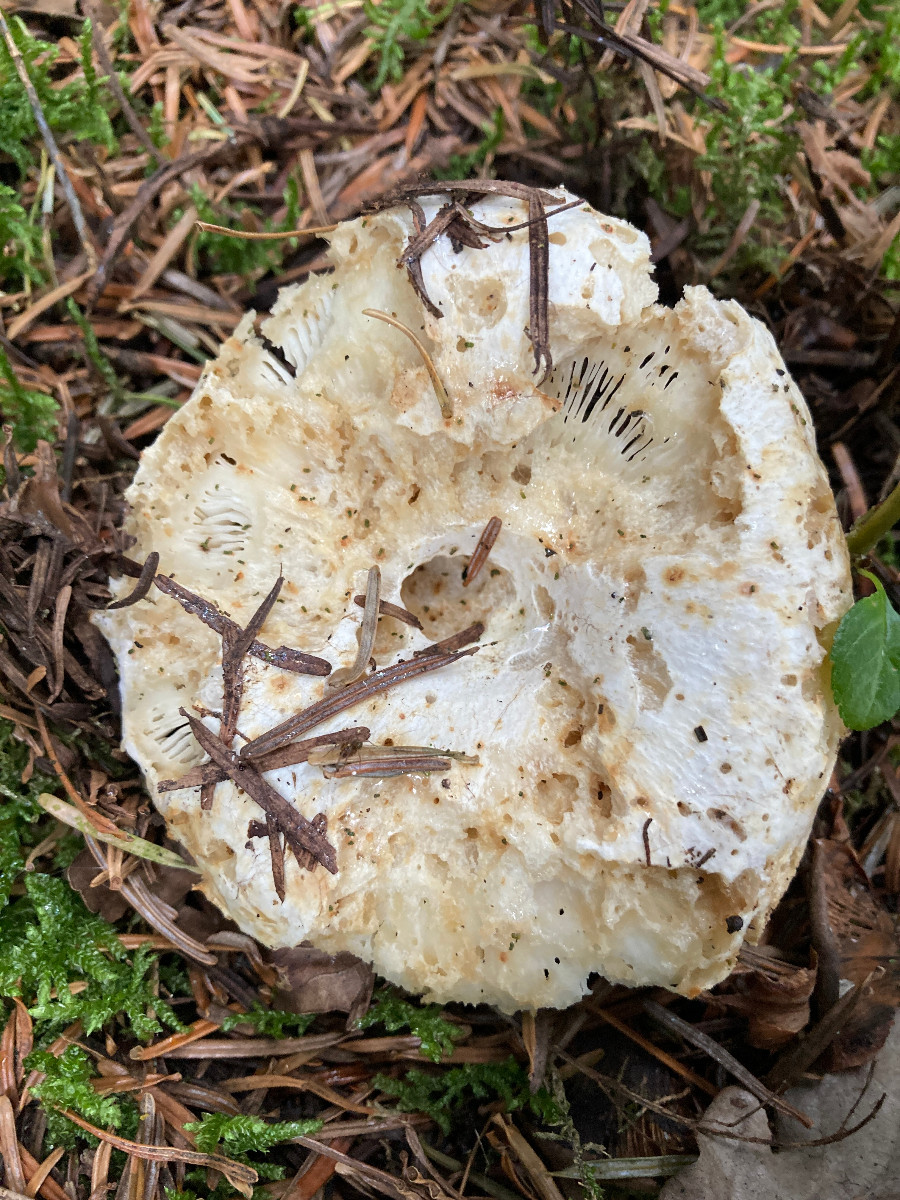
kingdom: Fungi
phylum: Basidiomycota
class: Agaricomycetes
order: Russulales
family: Russulaceae
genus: Russula
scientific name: Russula delica
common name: almindelig tragt-skørhat
